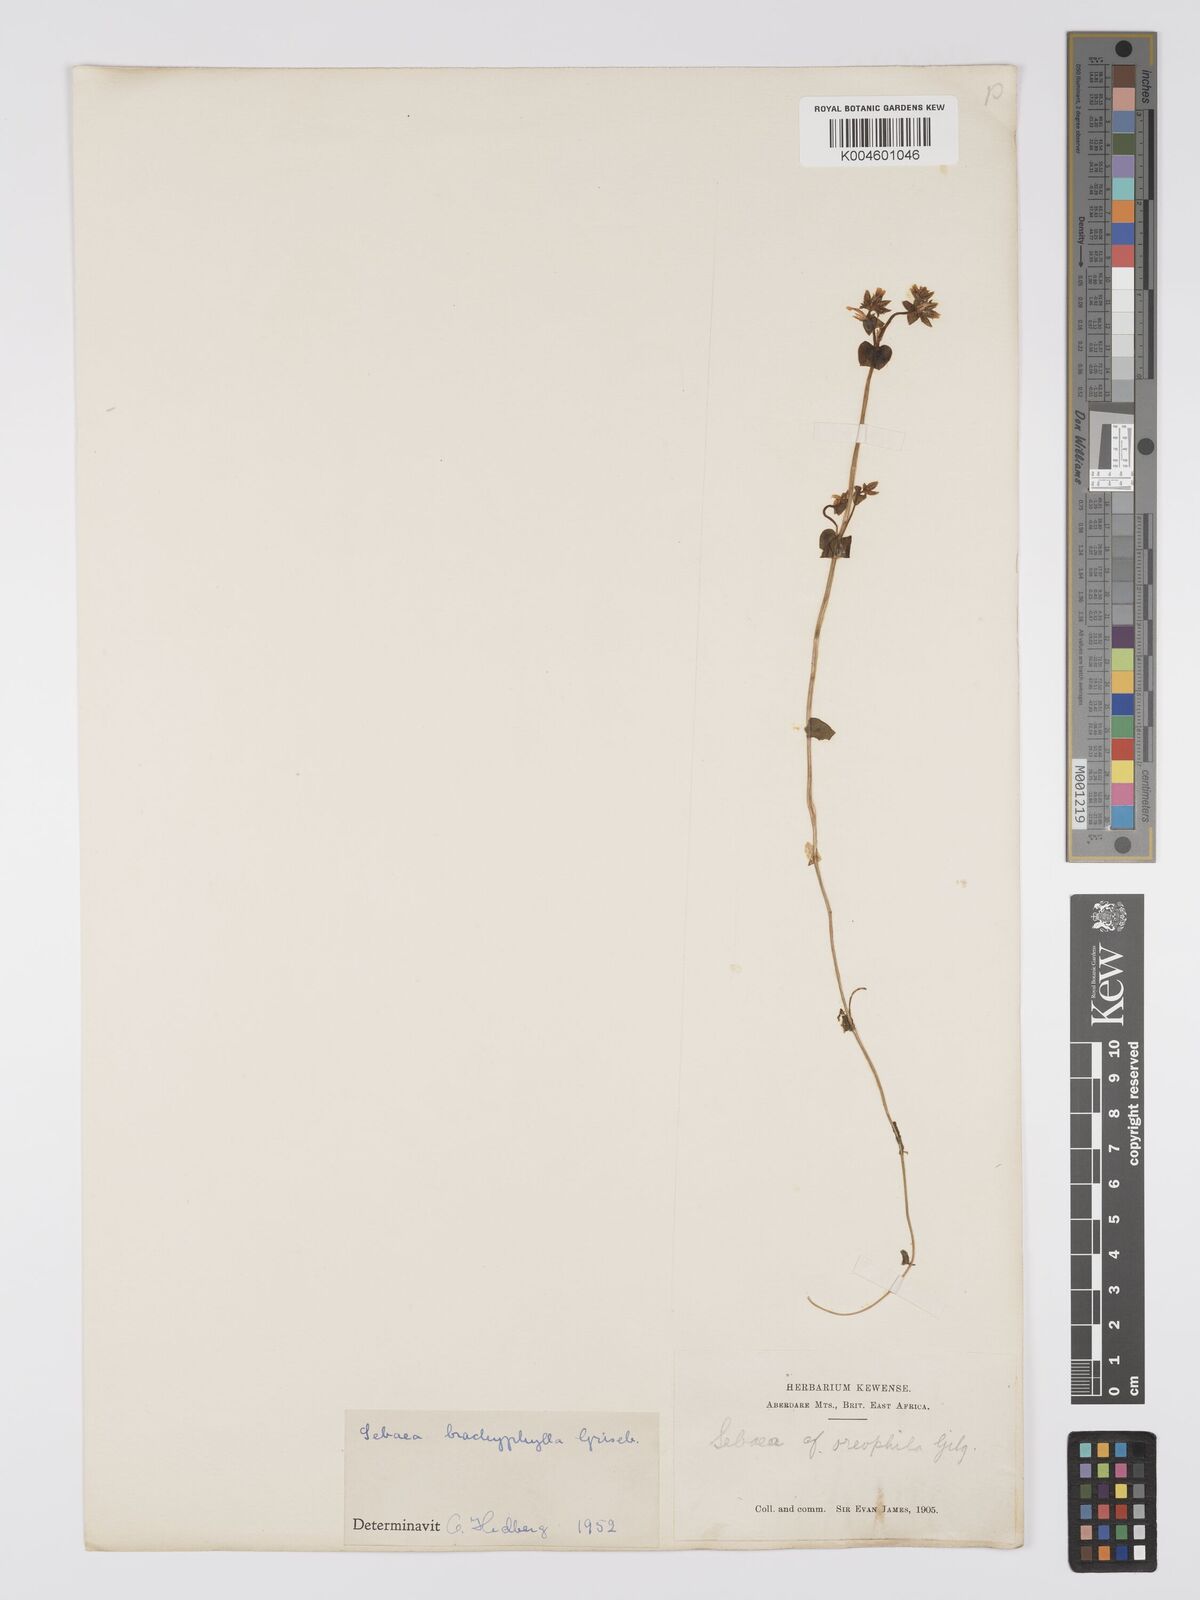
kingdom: Plantae
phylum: Tracheophyta
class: Magnoliopsida
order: Gentianales
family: Gentianaceae
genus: Sebaea
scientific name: Sebaea brachyphylla
